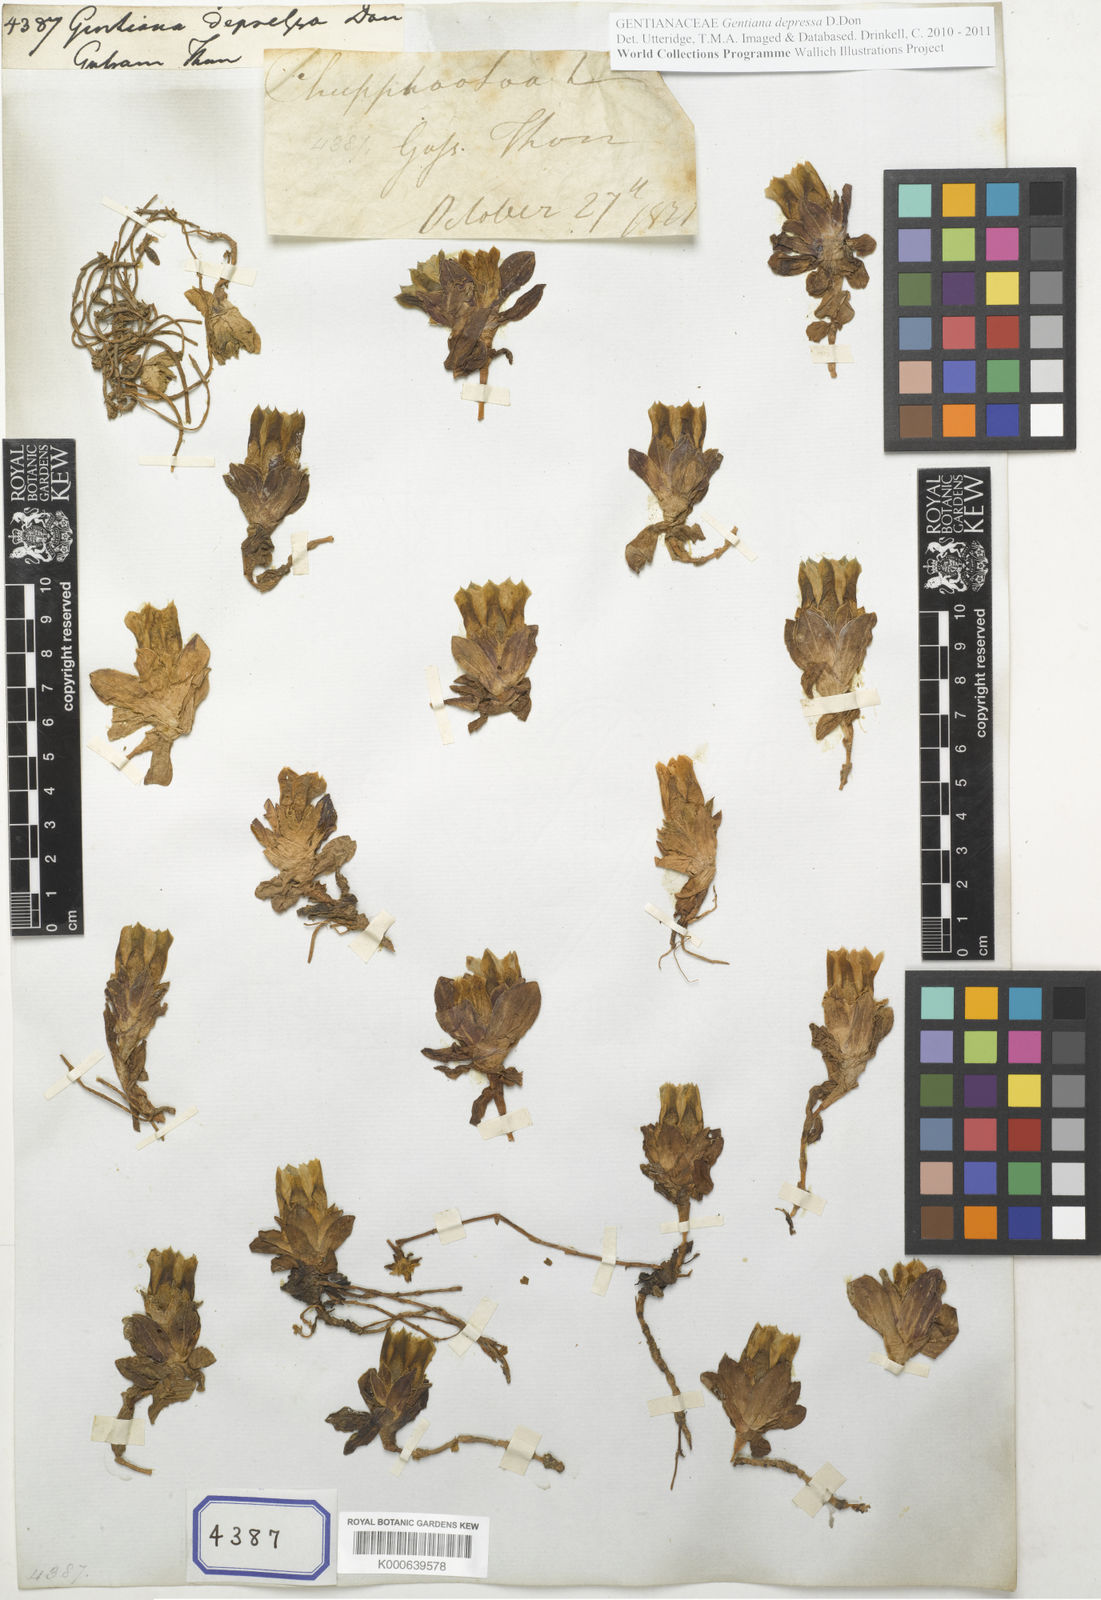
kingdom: Plantae
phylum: Tracheophyta
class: Magnoliopsida
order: Gentianales
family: Gentianaceae
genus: Gentiana
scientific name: Gentiana depressa
